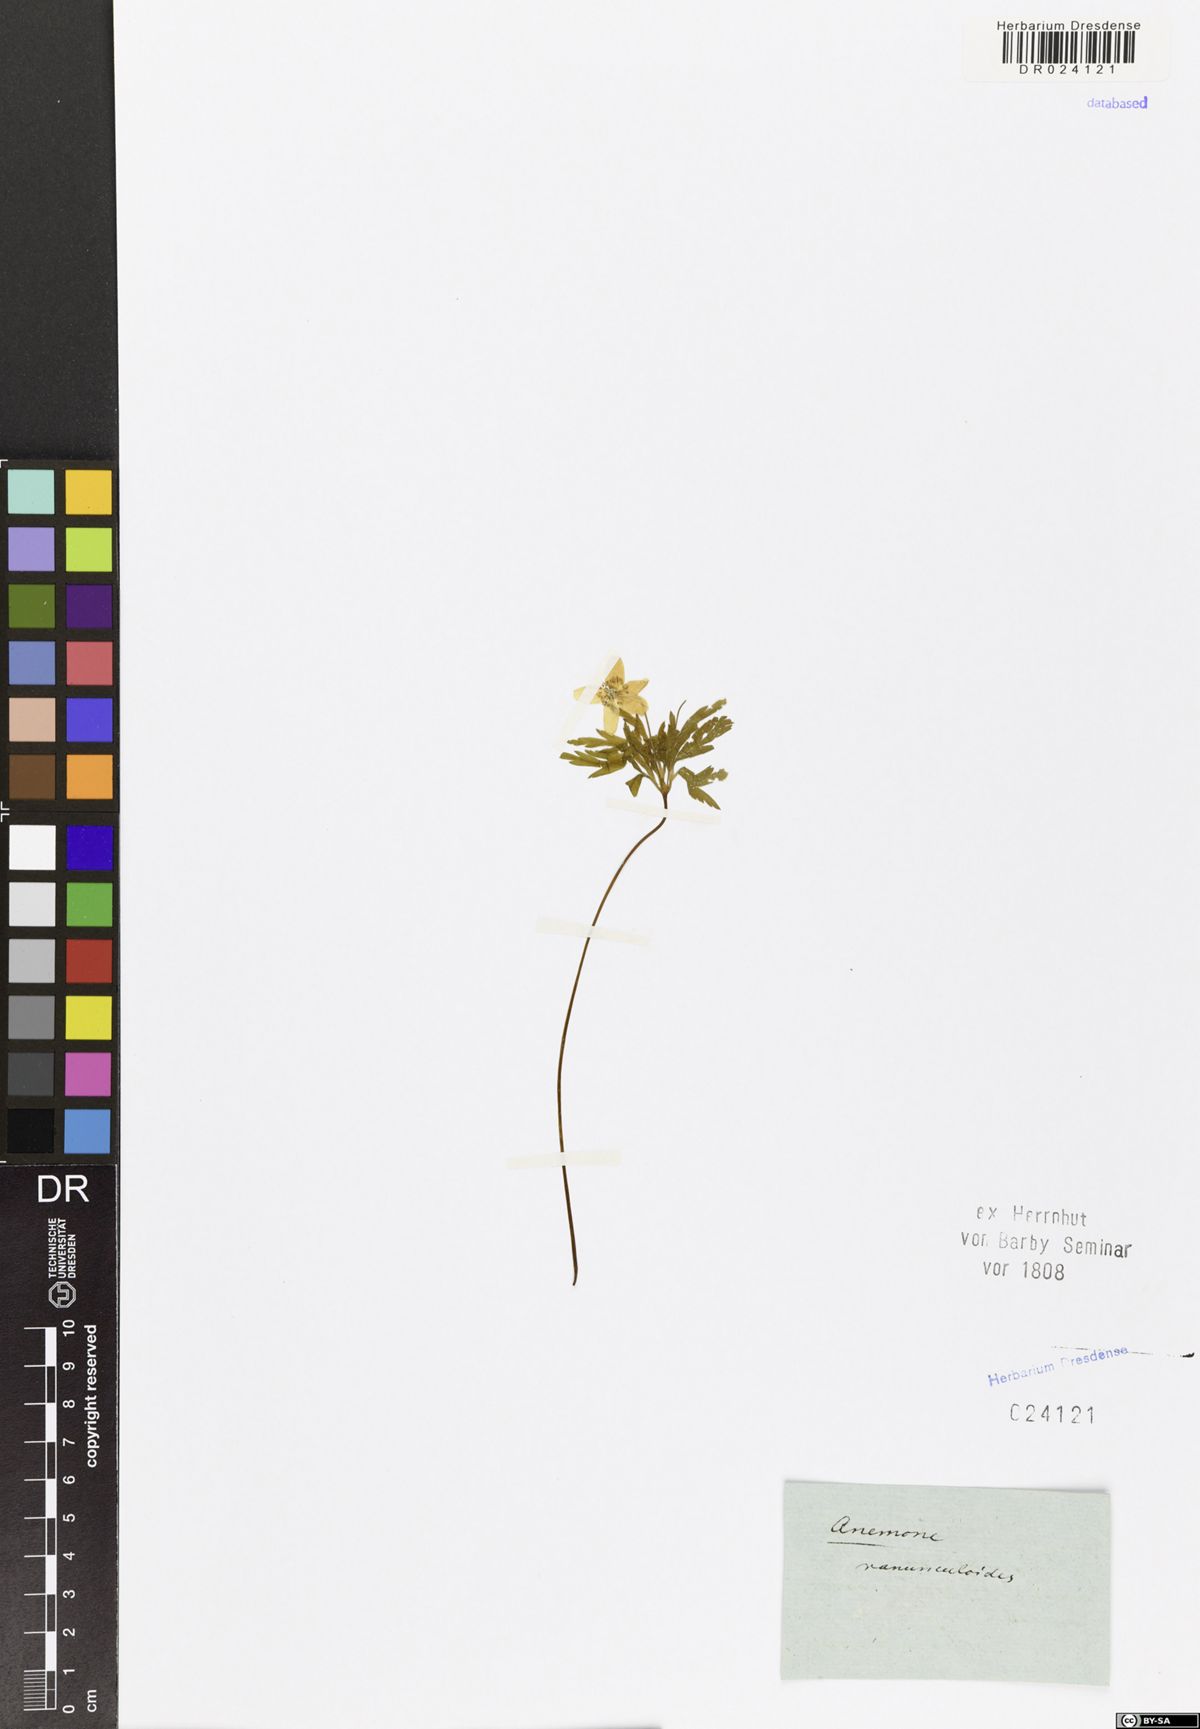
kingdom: Plantae
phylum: Tracheophyta
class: Magnoliopsida
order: Ranunculales
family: Ranunculaceae
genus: Anemone
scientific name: Anemone ranunculoides
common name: Yellow anemone
